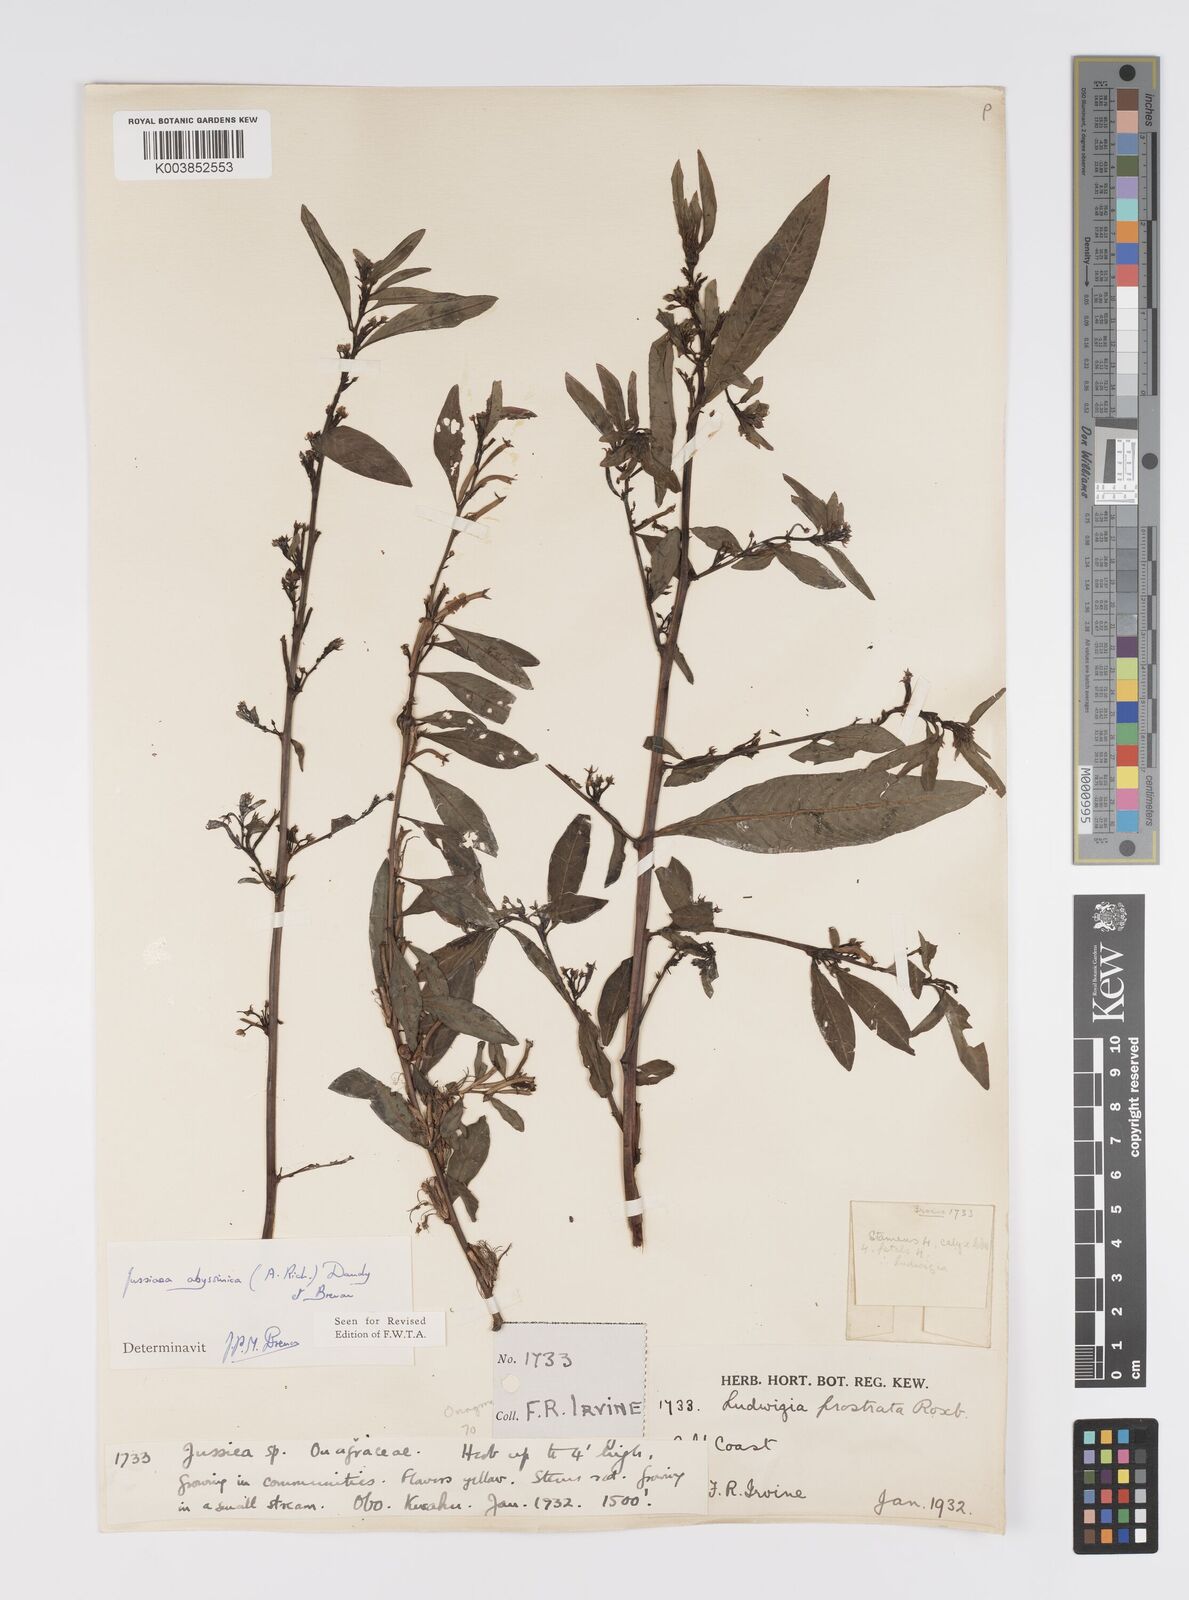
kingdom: Plantae
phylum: Tracheophyta
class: Magnoliopsida
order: Myrtales
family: Onagraceae
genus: Ludwigia
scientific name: Ludwigia abyssinica
